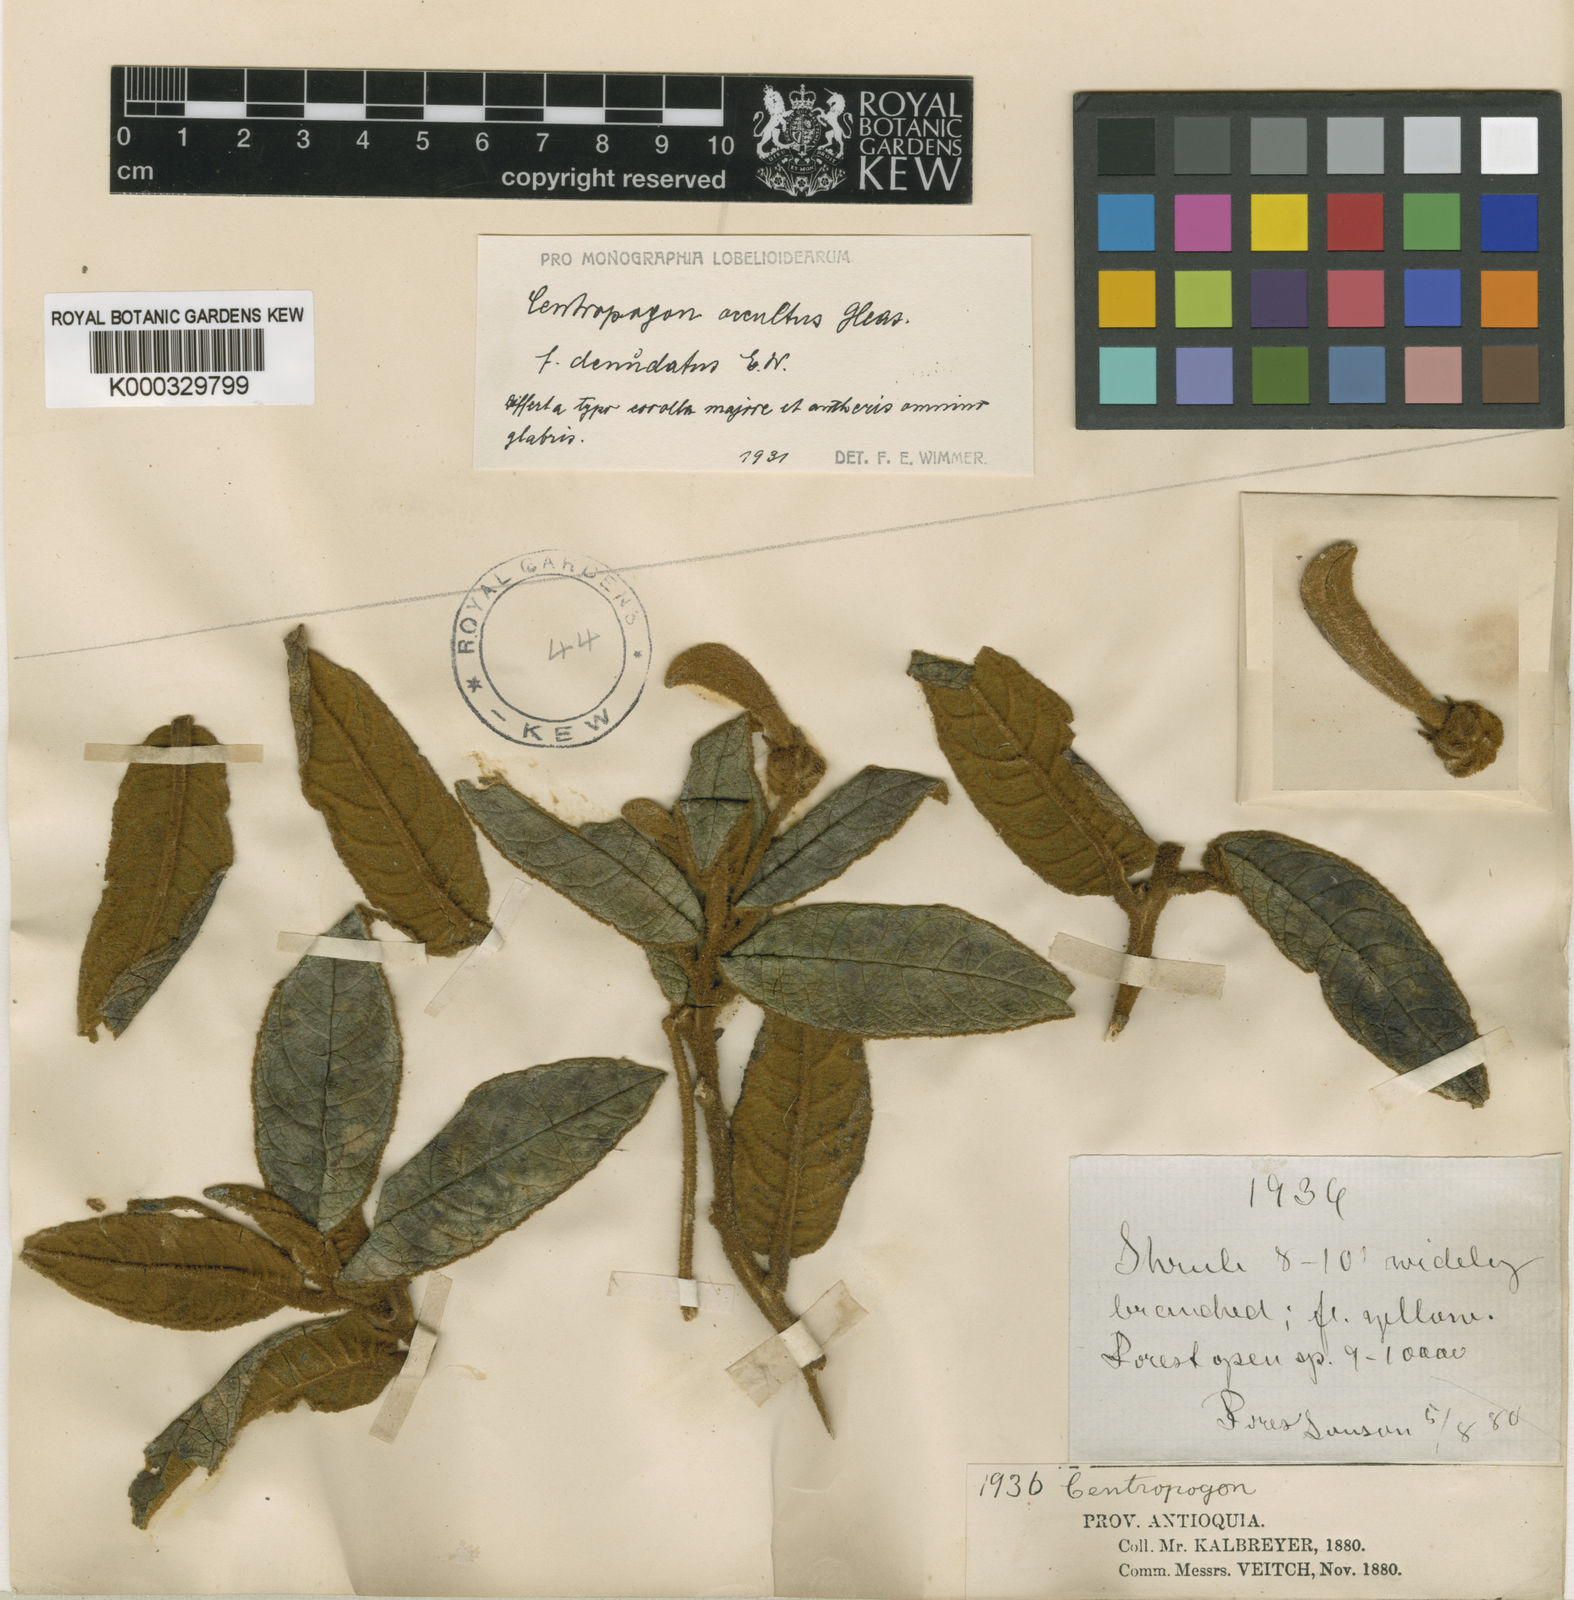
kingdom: Plantae
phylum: Tracheophyta
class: Magnoliopsida
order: Asterales
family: Campanulaceae
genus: Centropogon
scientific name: Centropogon occultus
